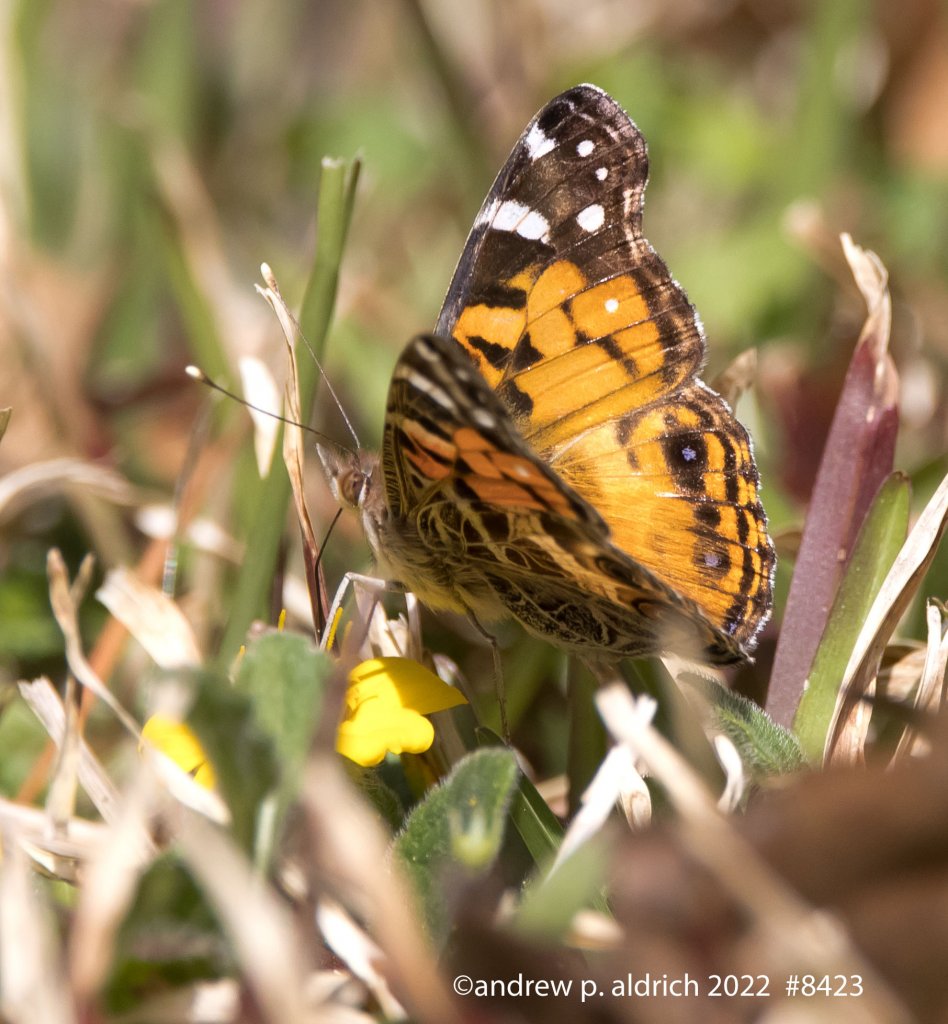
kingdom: Animalia
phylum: Arthropoda
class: Insecta
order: Lepidoptera
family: Nymphalidae
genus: Vanessa
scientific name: Vanessa virginiensis
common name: American Lady
